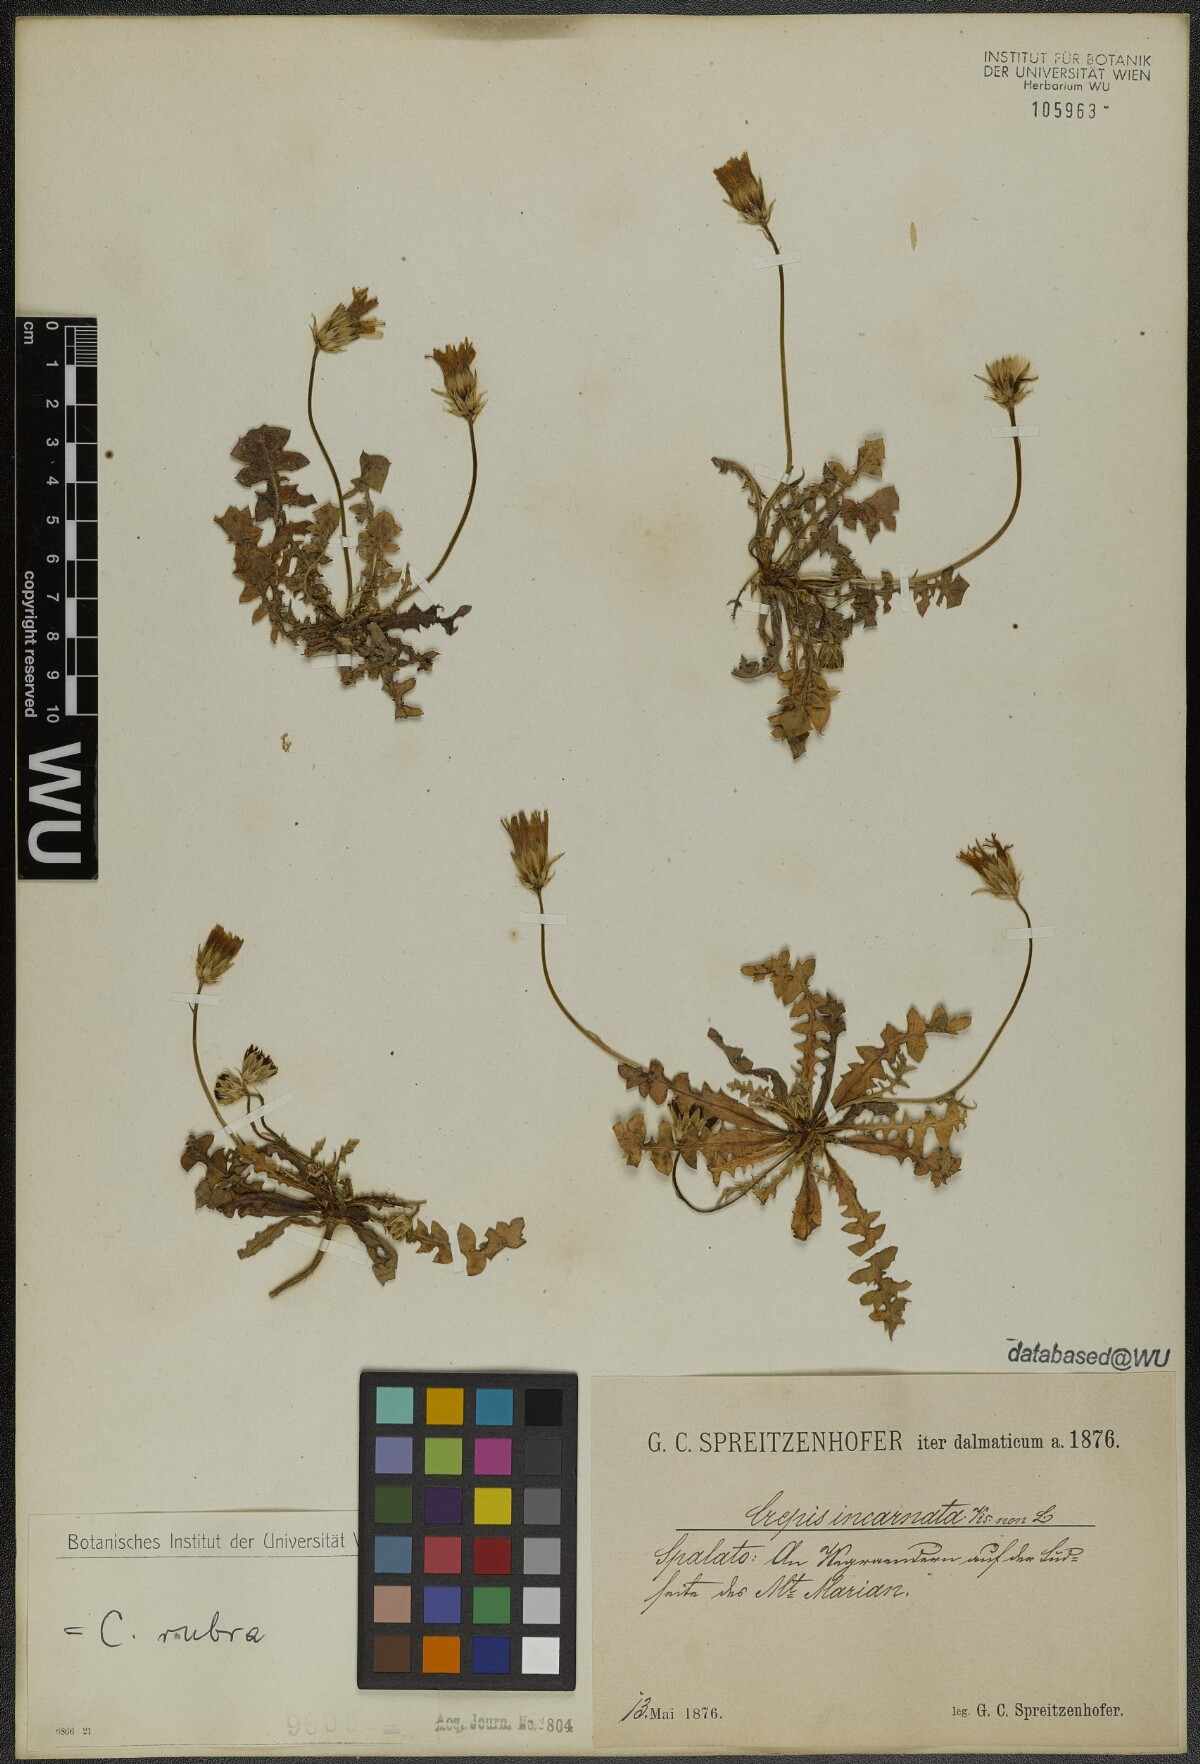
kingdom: Plantae
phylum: Tracheophyta
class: Magnoliopsida
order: Asterales
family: Asteraceae
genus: Crepis
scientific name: Crepis rubra
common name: Pink hawk's-beard
